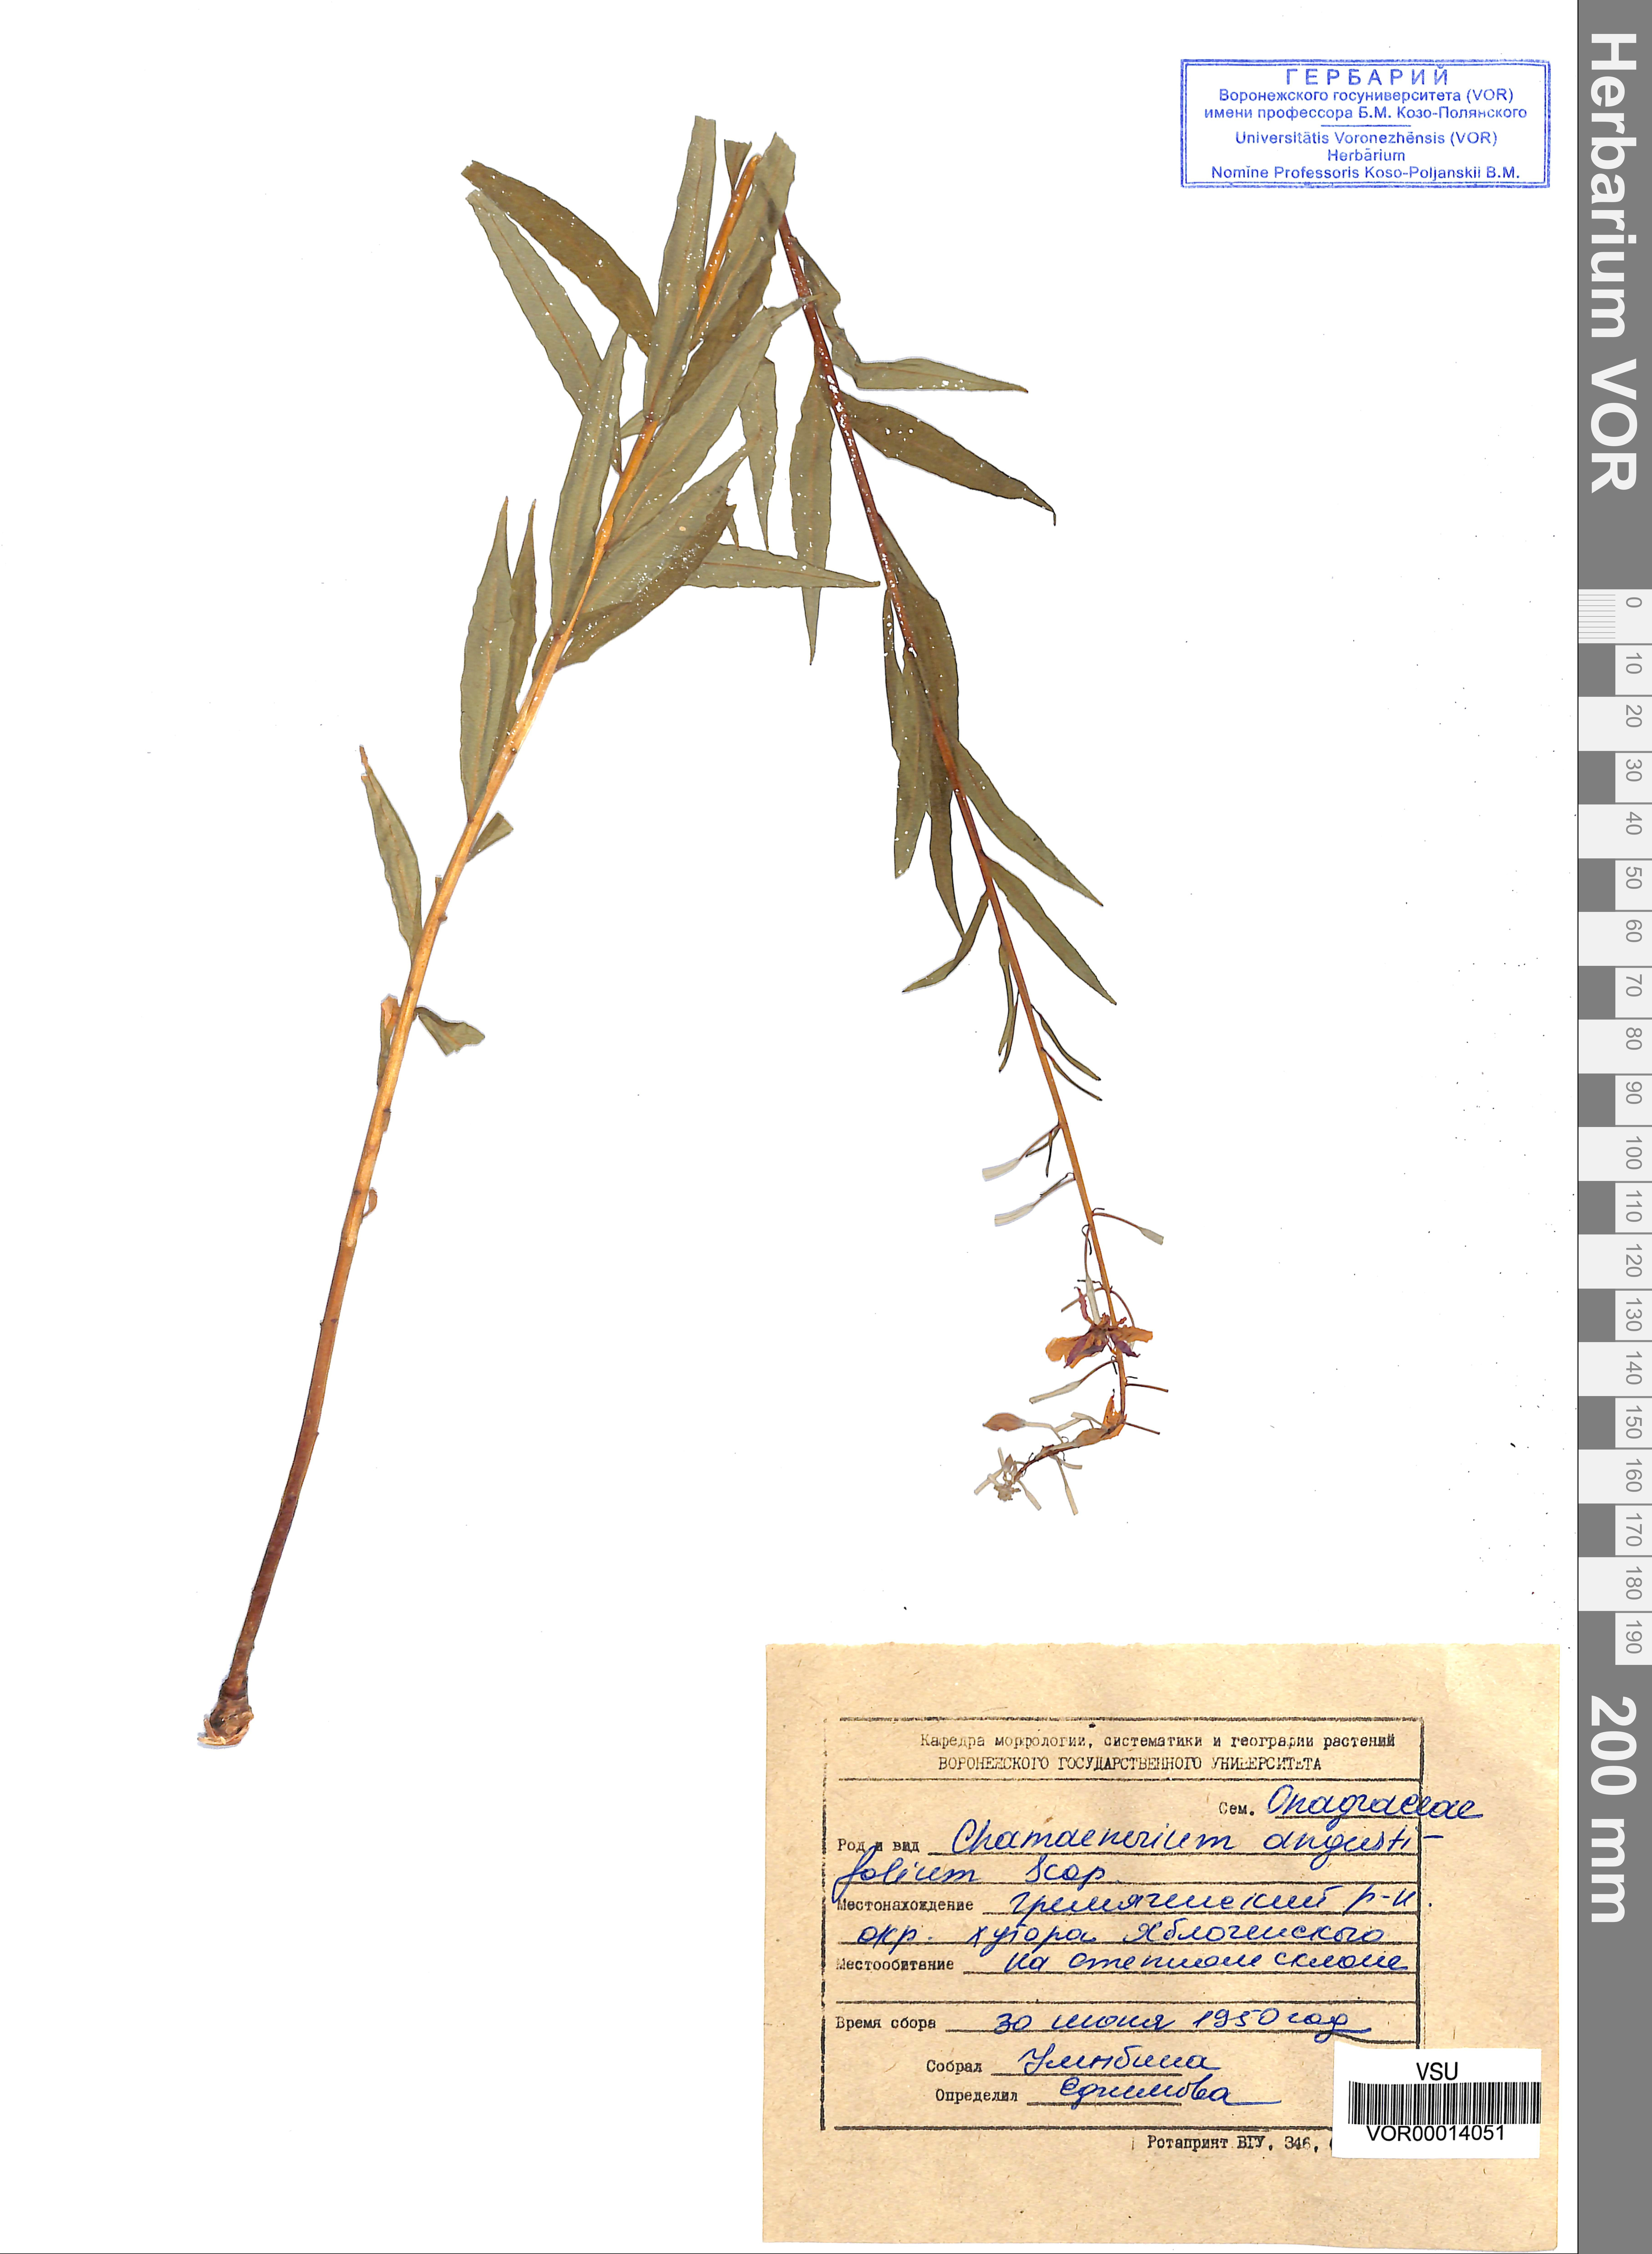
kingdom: Plantae
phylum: Tracheophyta
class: Magnoliopsida
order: Myrtales
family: Onagraceae
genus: Chamaenerion
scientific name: Chamaenerion angustifolium
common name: Fireweed
